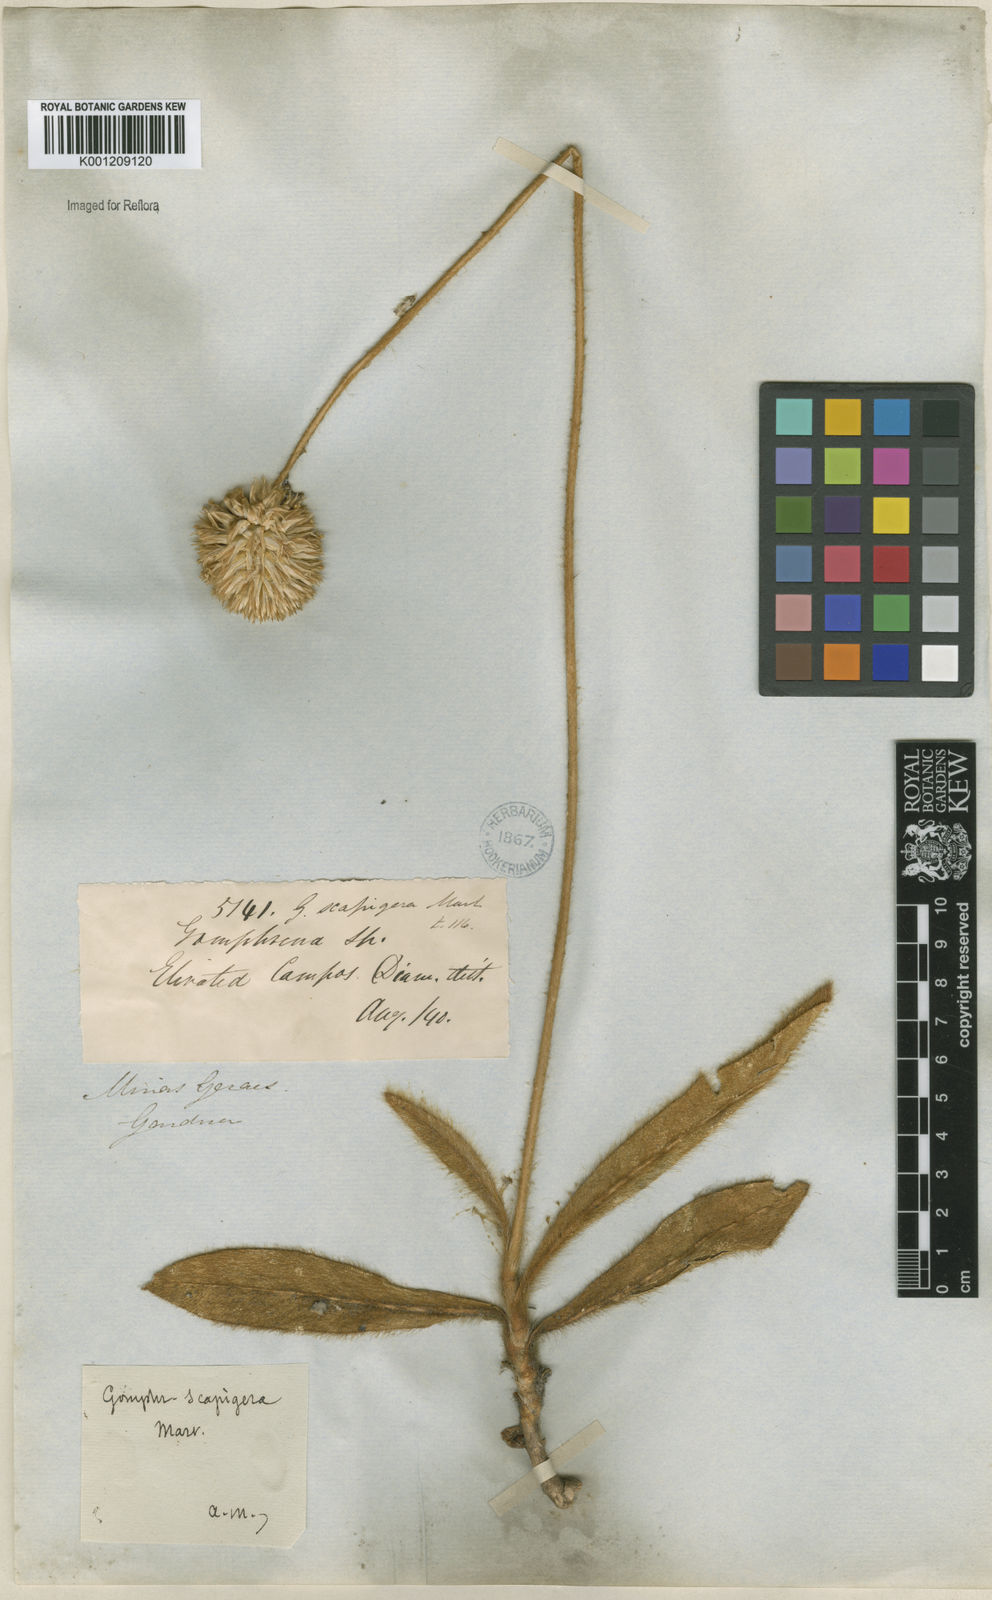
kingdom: Plantae
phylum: Tracheophyta
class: Magnoliopsida
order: Caryophyllales
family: Amaranthaceae
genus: Gomphrena
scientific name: Gomphrena scapigera
